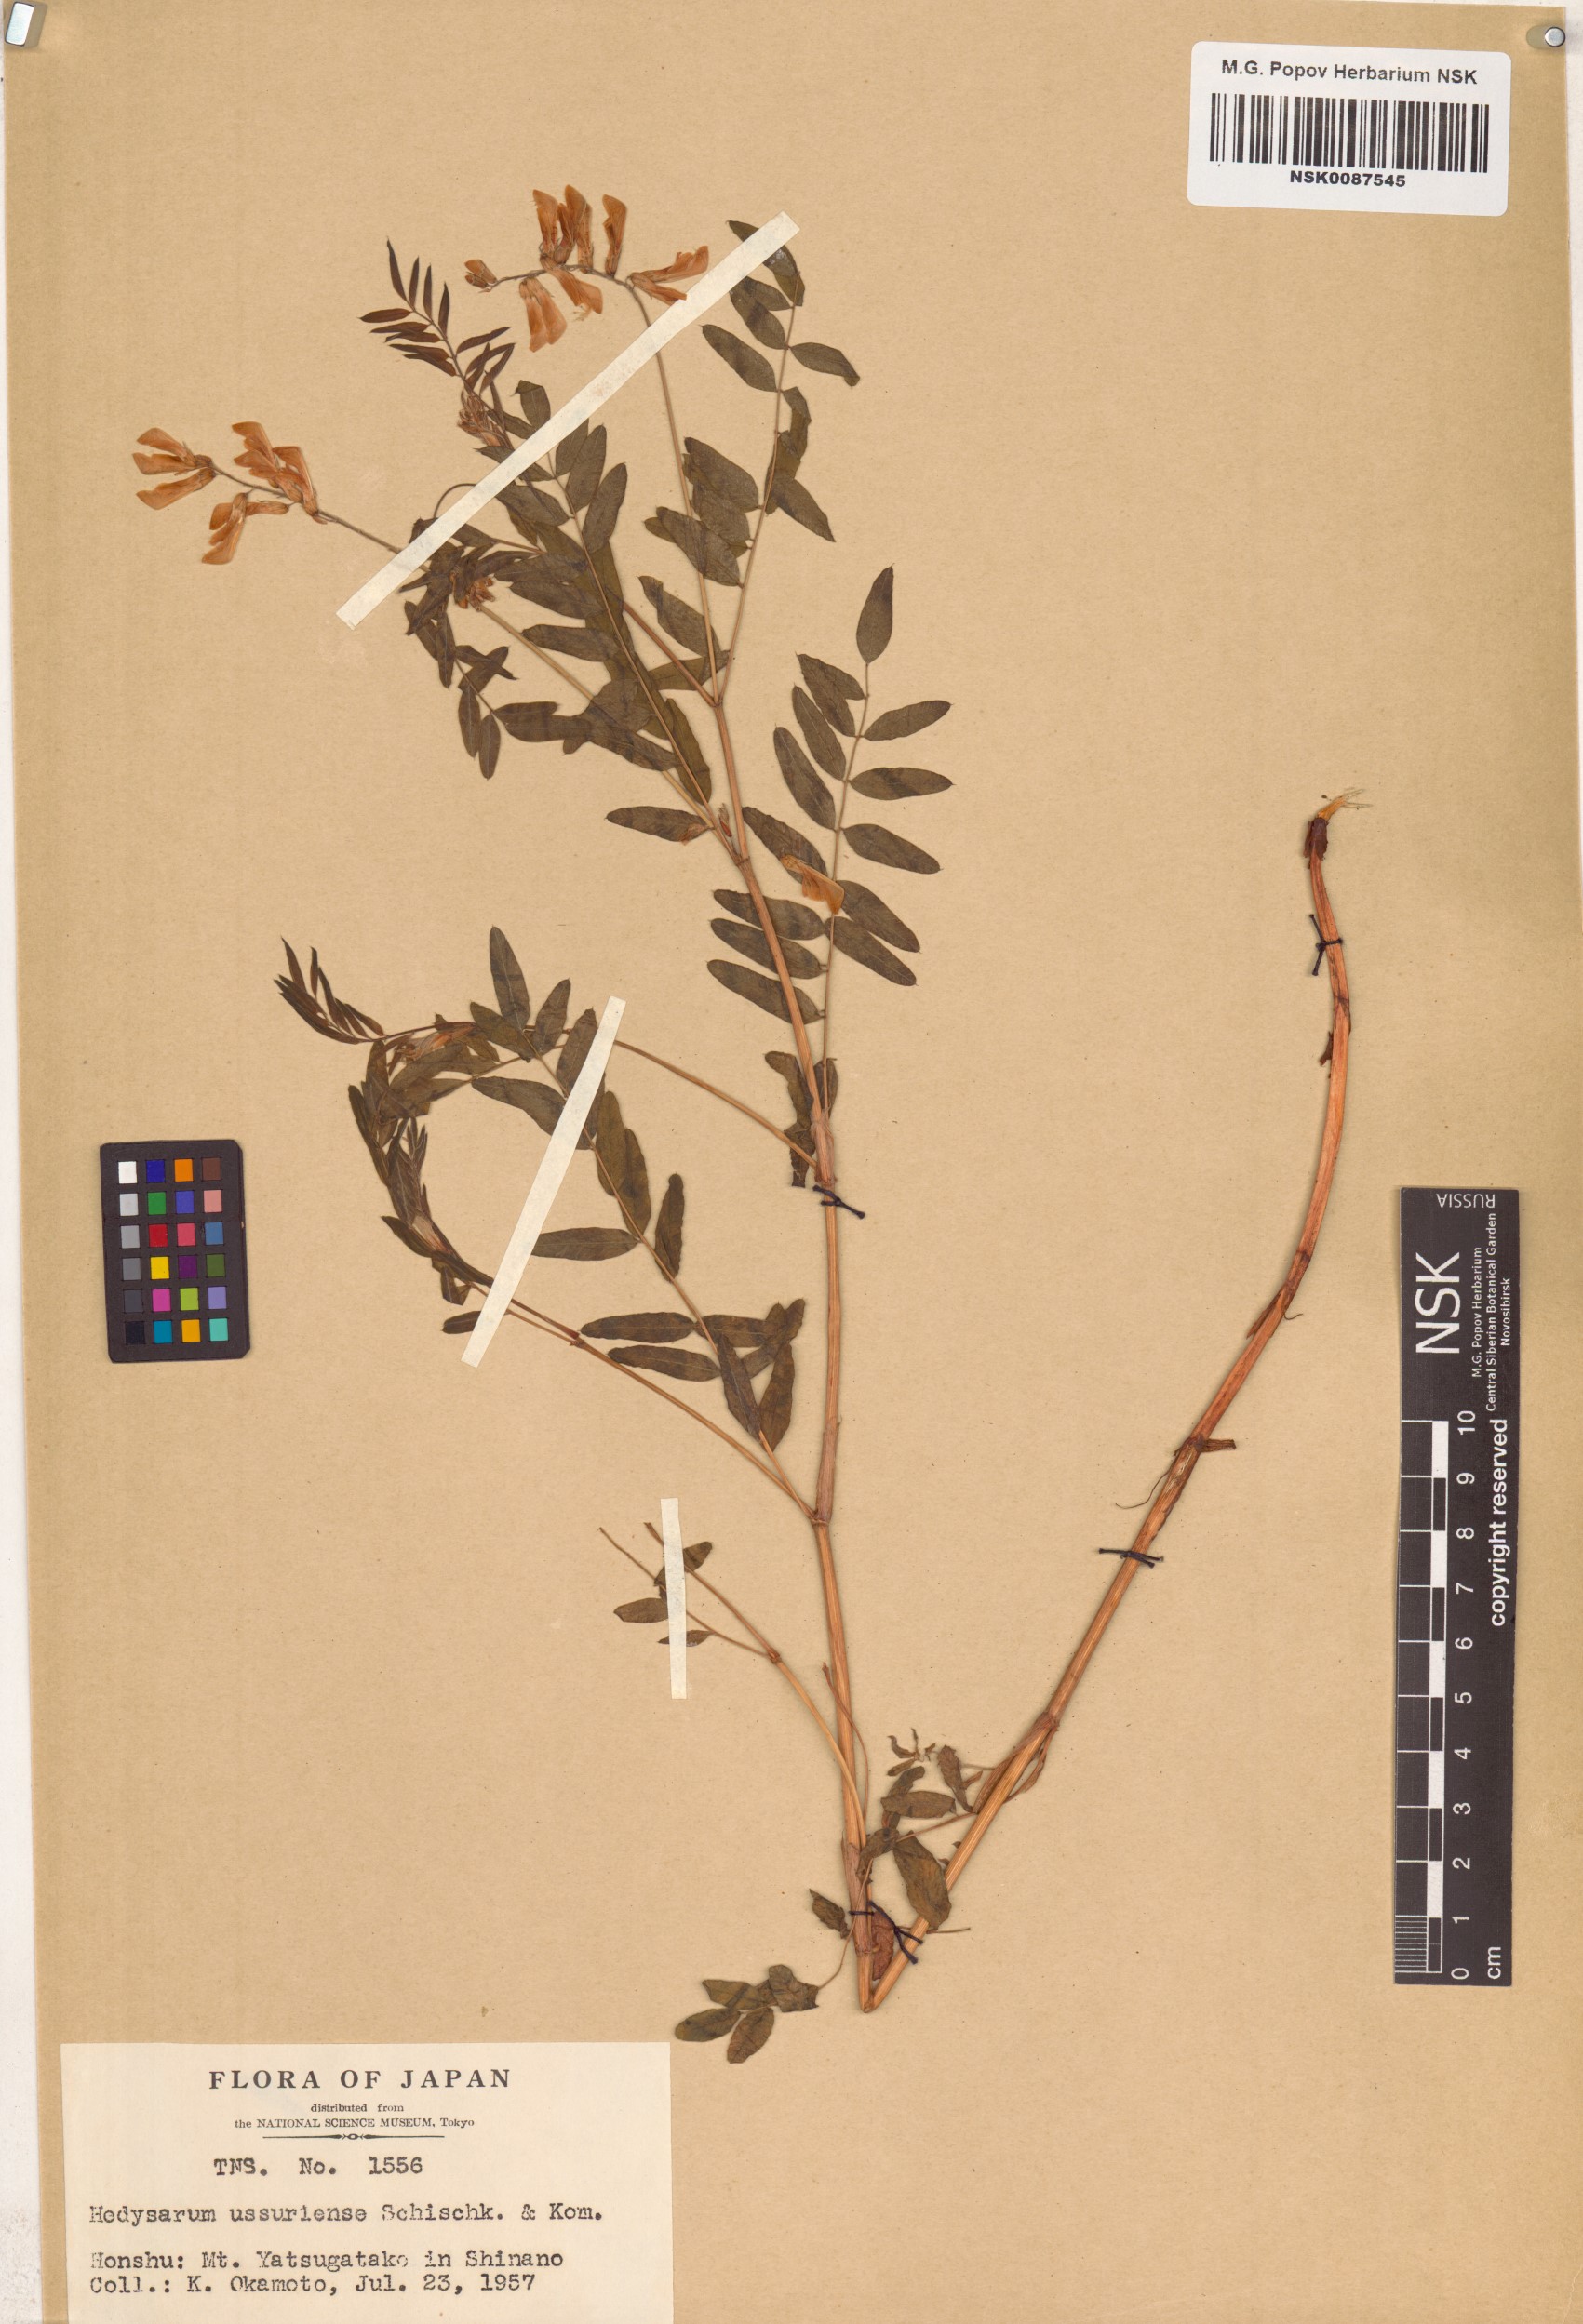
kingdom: Plantae
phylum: Tracheophyta
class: Magnoliopsida
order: Fabales
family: Fabaceae
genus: Hedysarum
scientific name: Hedysarum vicioides
